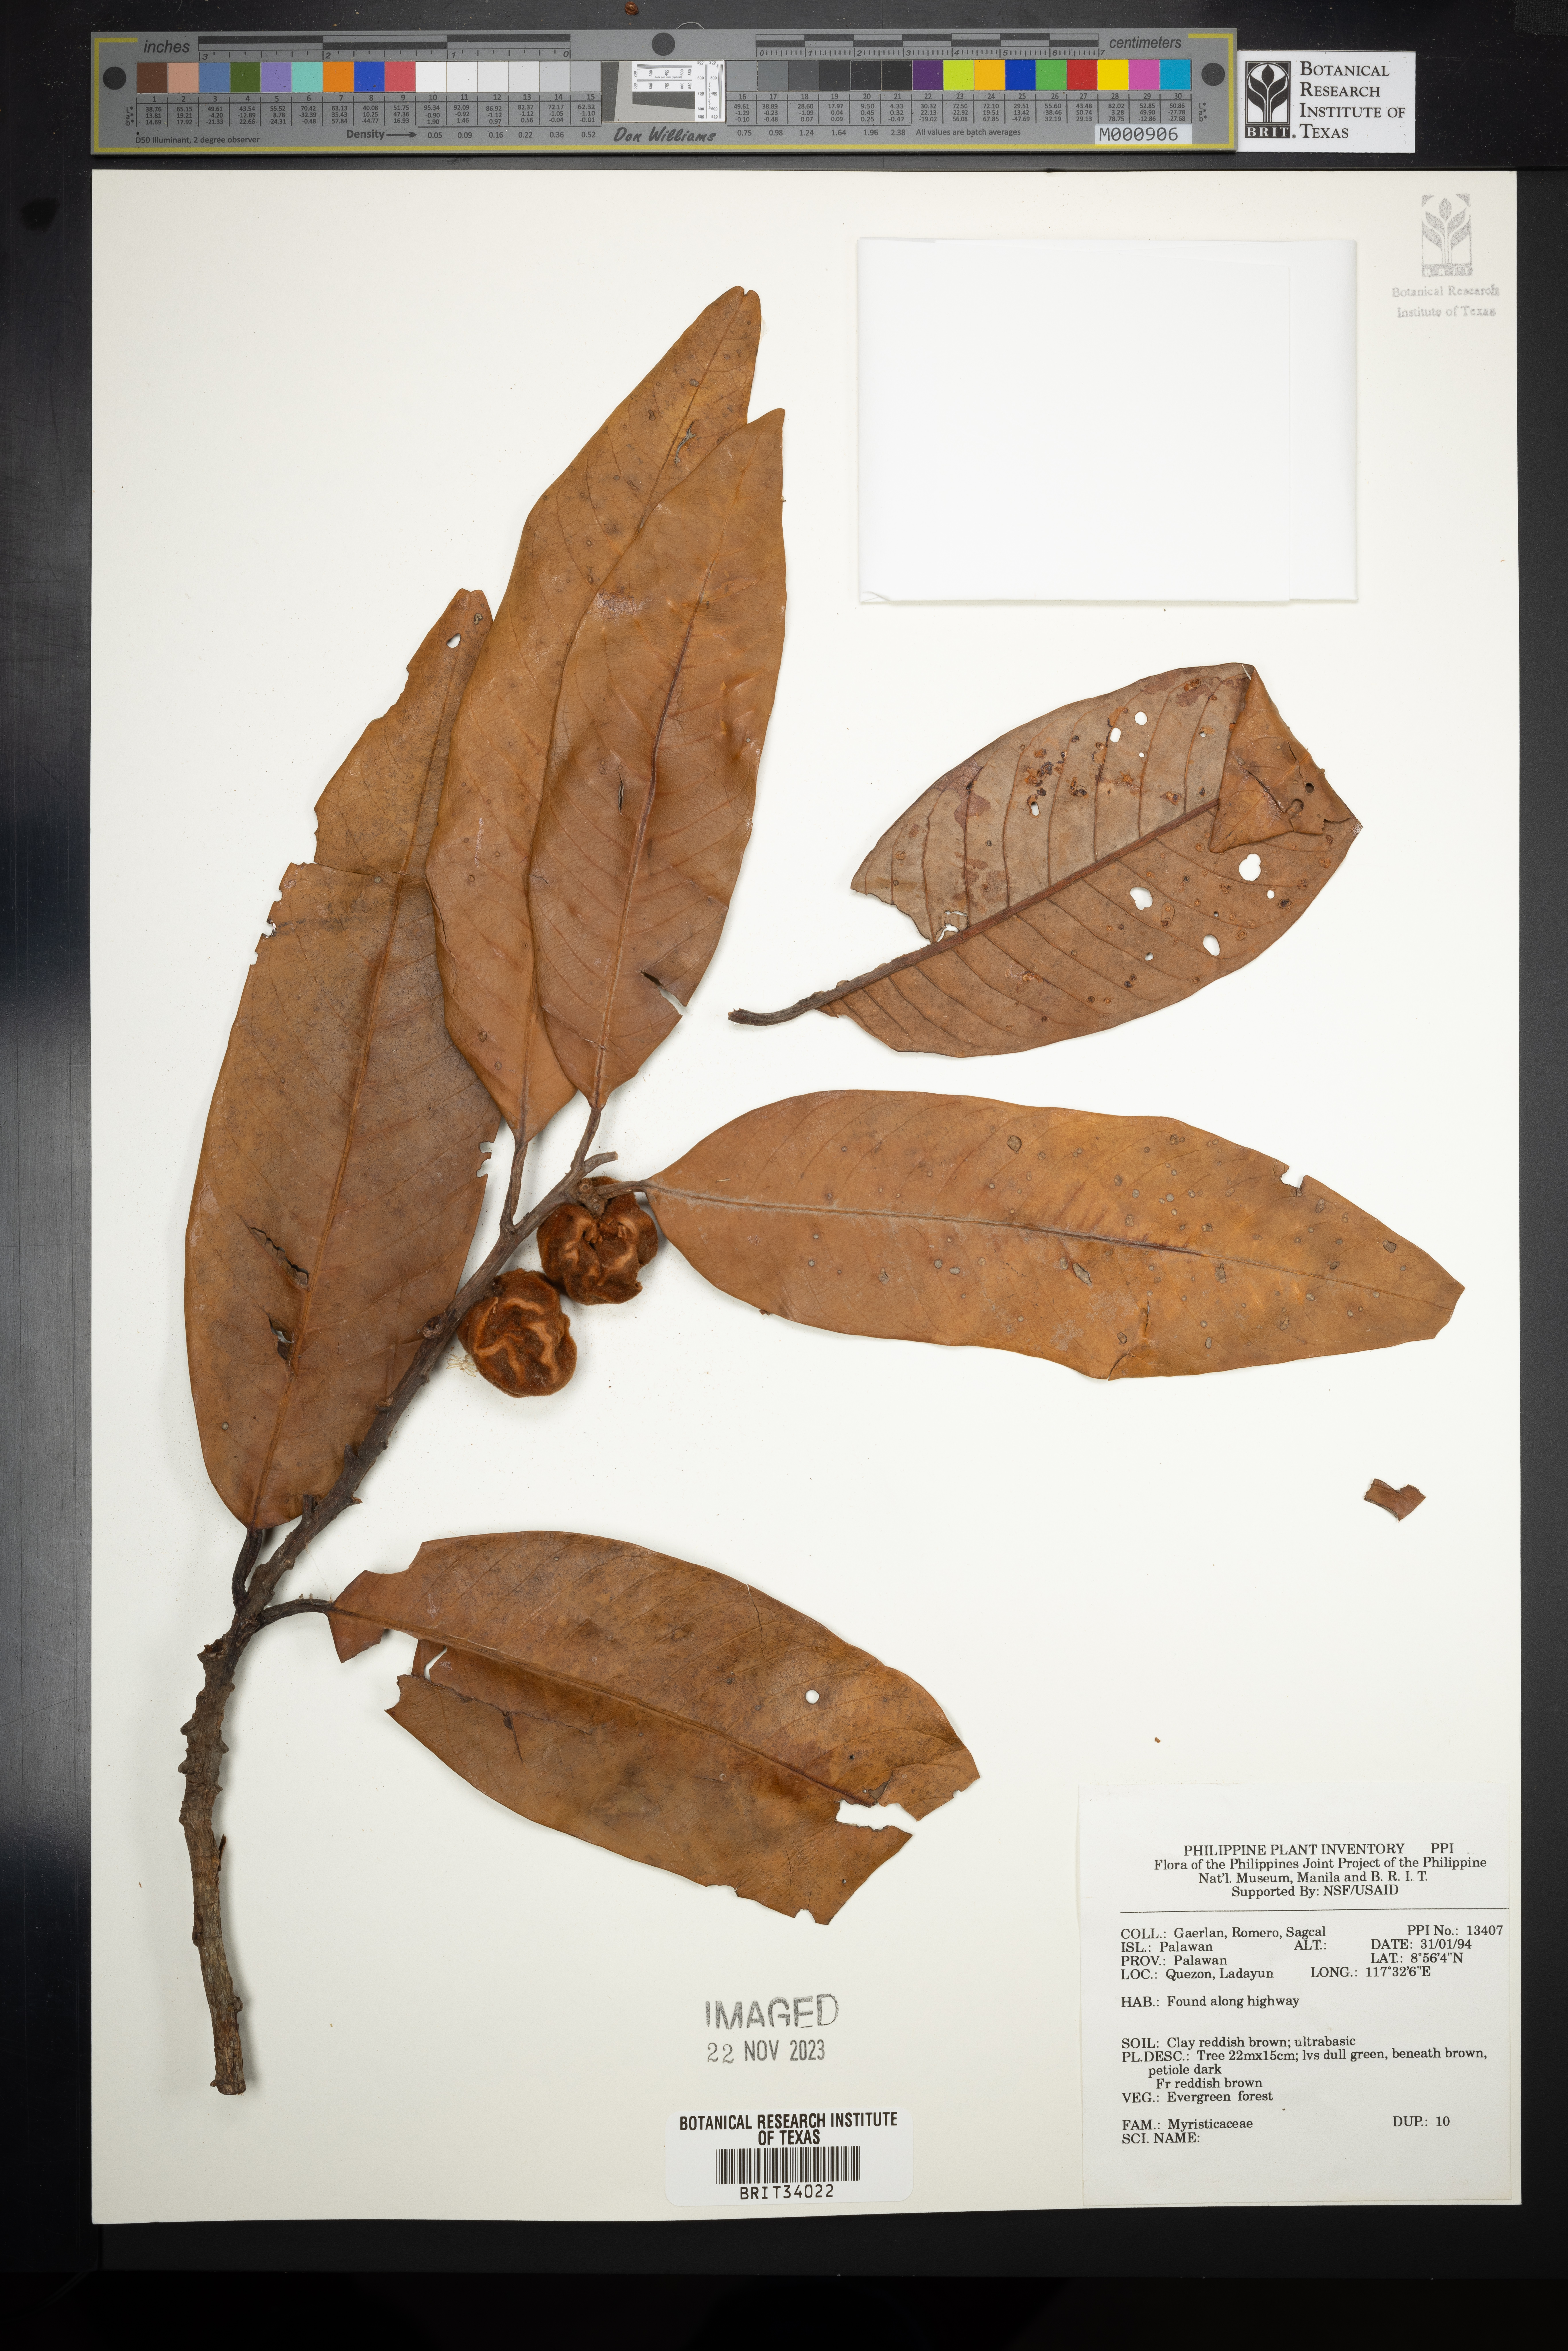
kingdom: Plantae
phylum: Tracheophyta
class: Magnoliopsida
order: Magnoliales
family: Myristicaceae
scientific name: Myristicaceae
